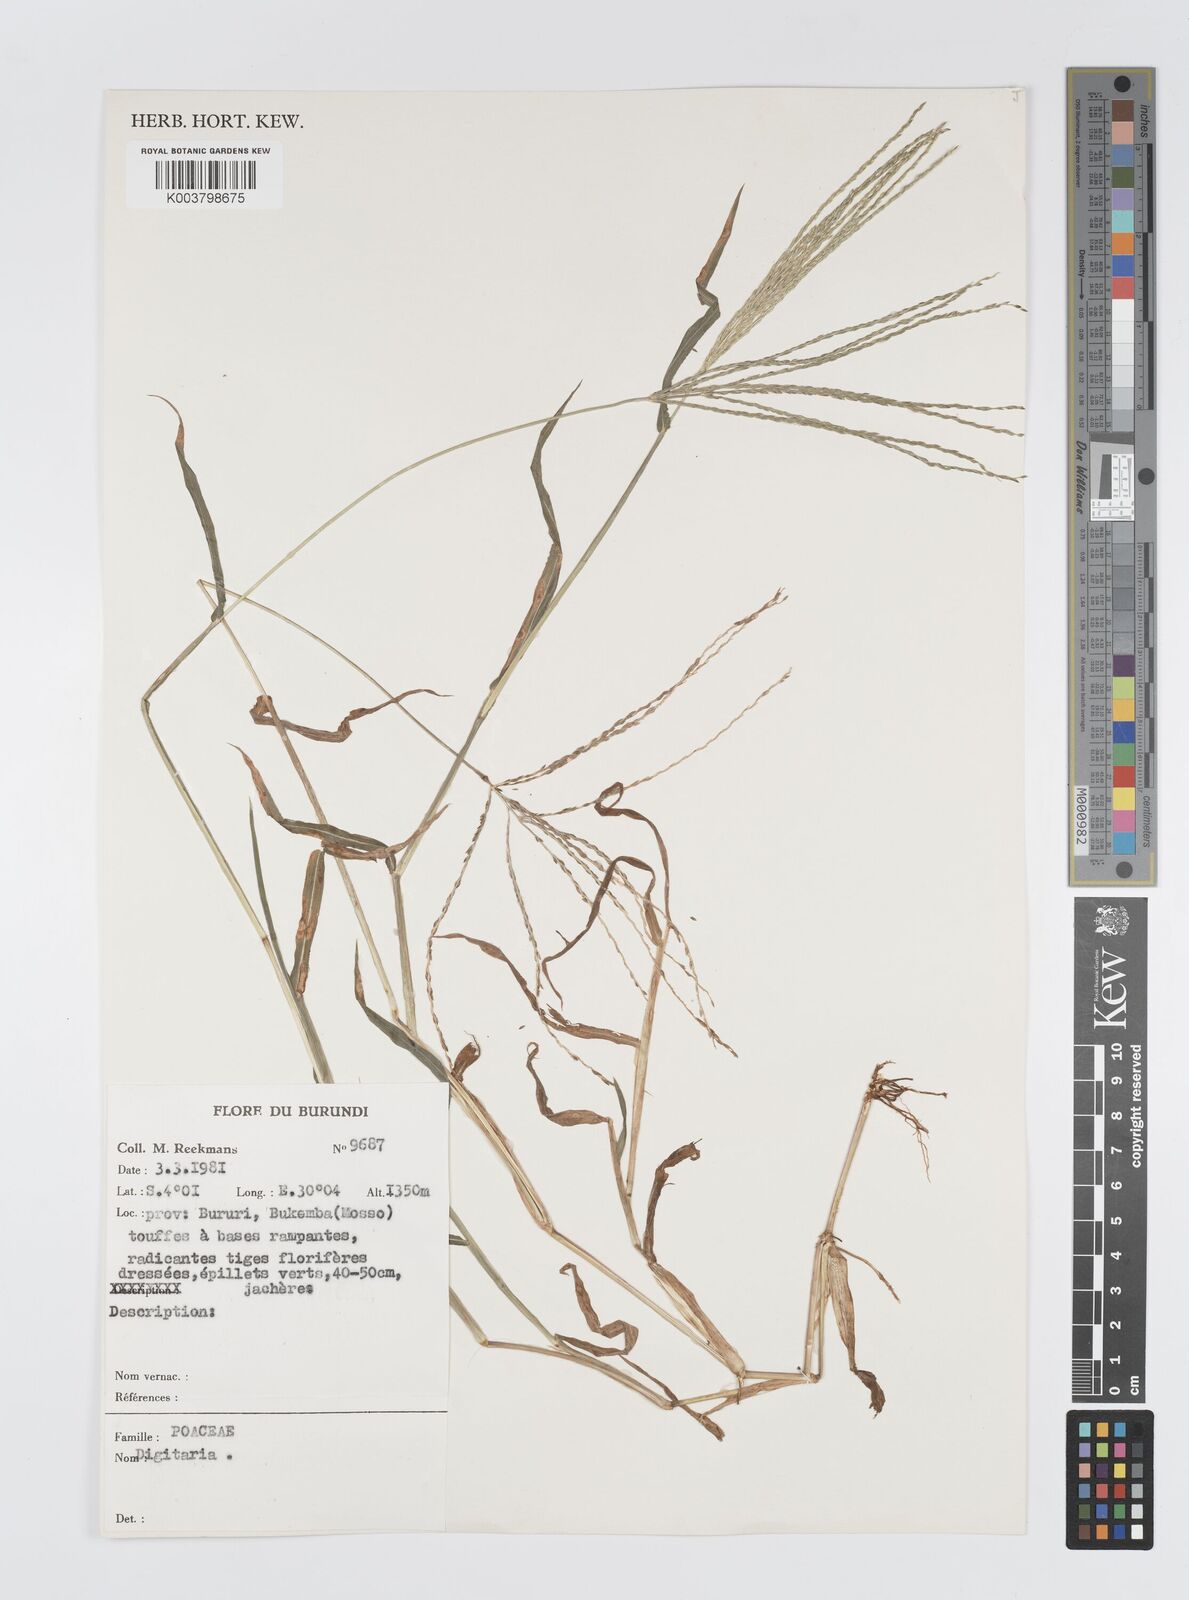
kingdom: Plantae
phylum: Tracheophyta
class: Liliopsida
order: Poales
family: Poaceae
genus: Digitaria
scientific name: Digitaria spec
